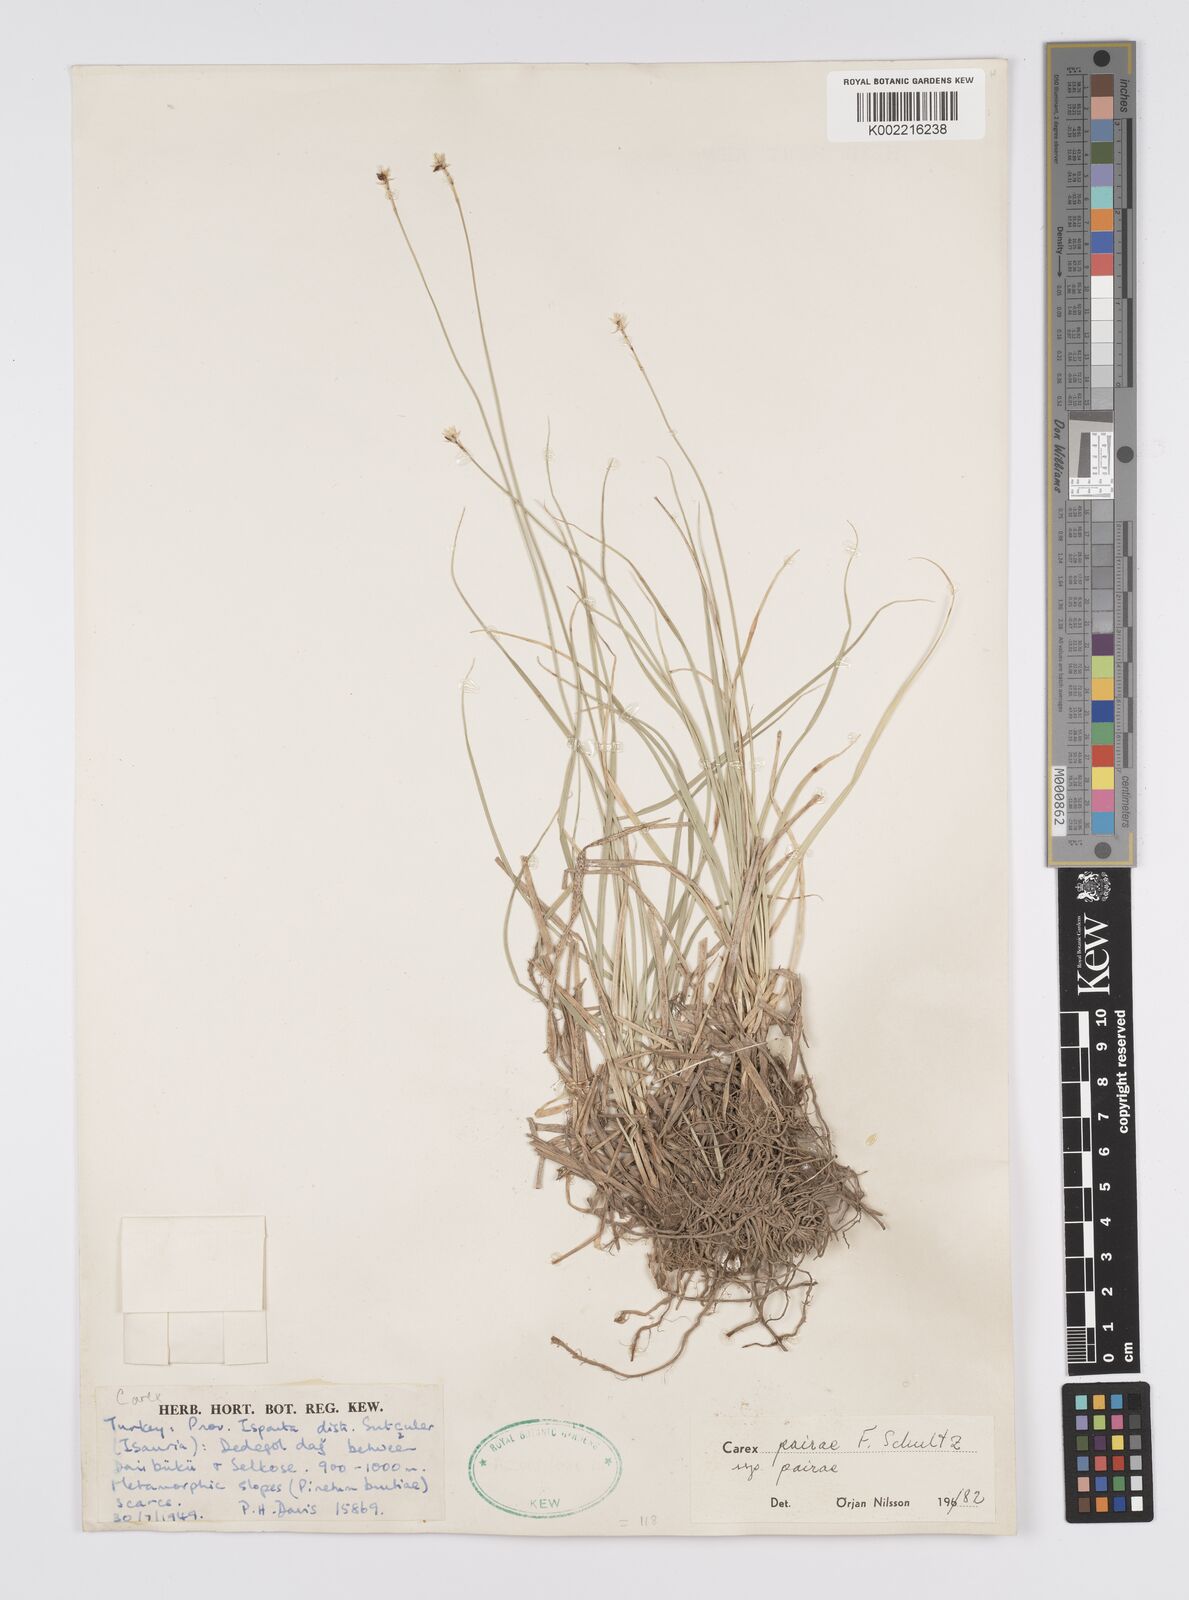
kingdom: Plantae
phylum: Tracheophyta
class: Liliopsida
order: Poales
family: Cyperaceae
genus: Carex
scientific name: Carex muricata
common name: Rough sedge
